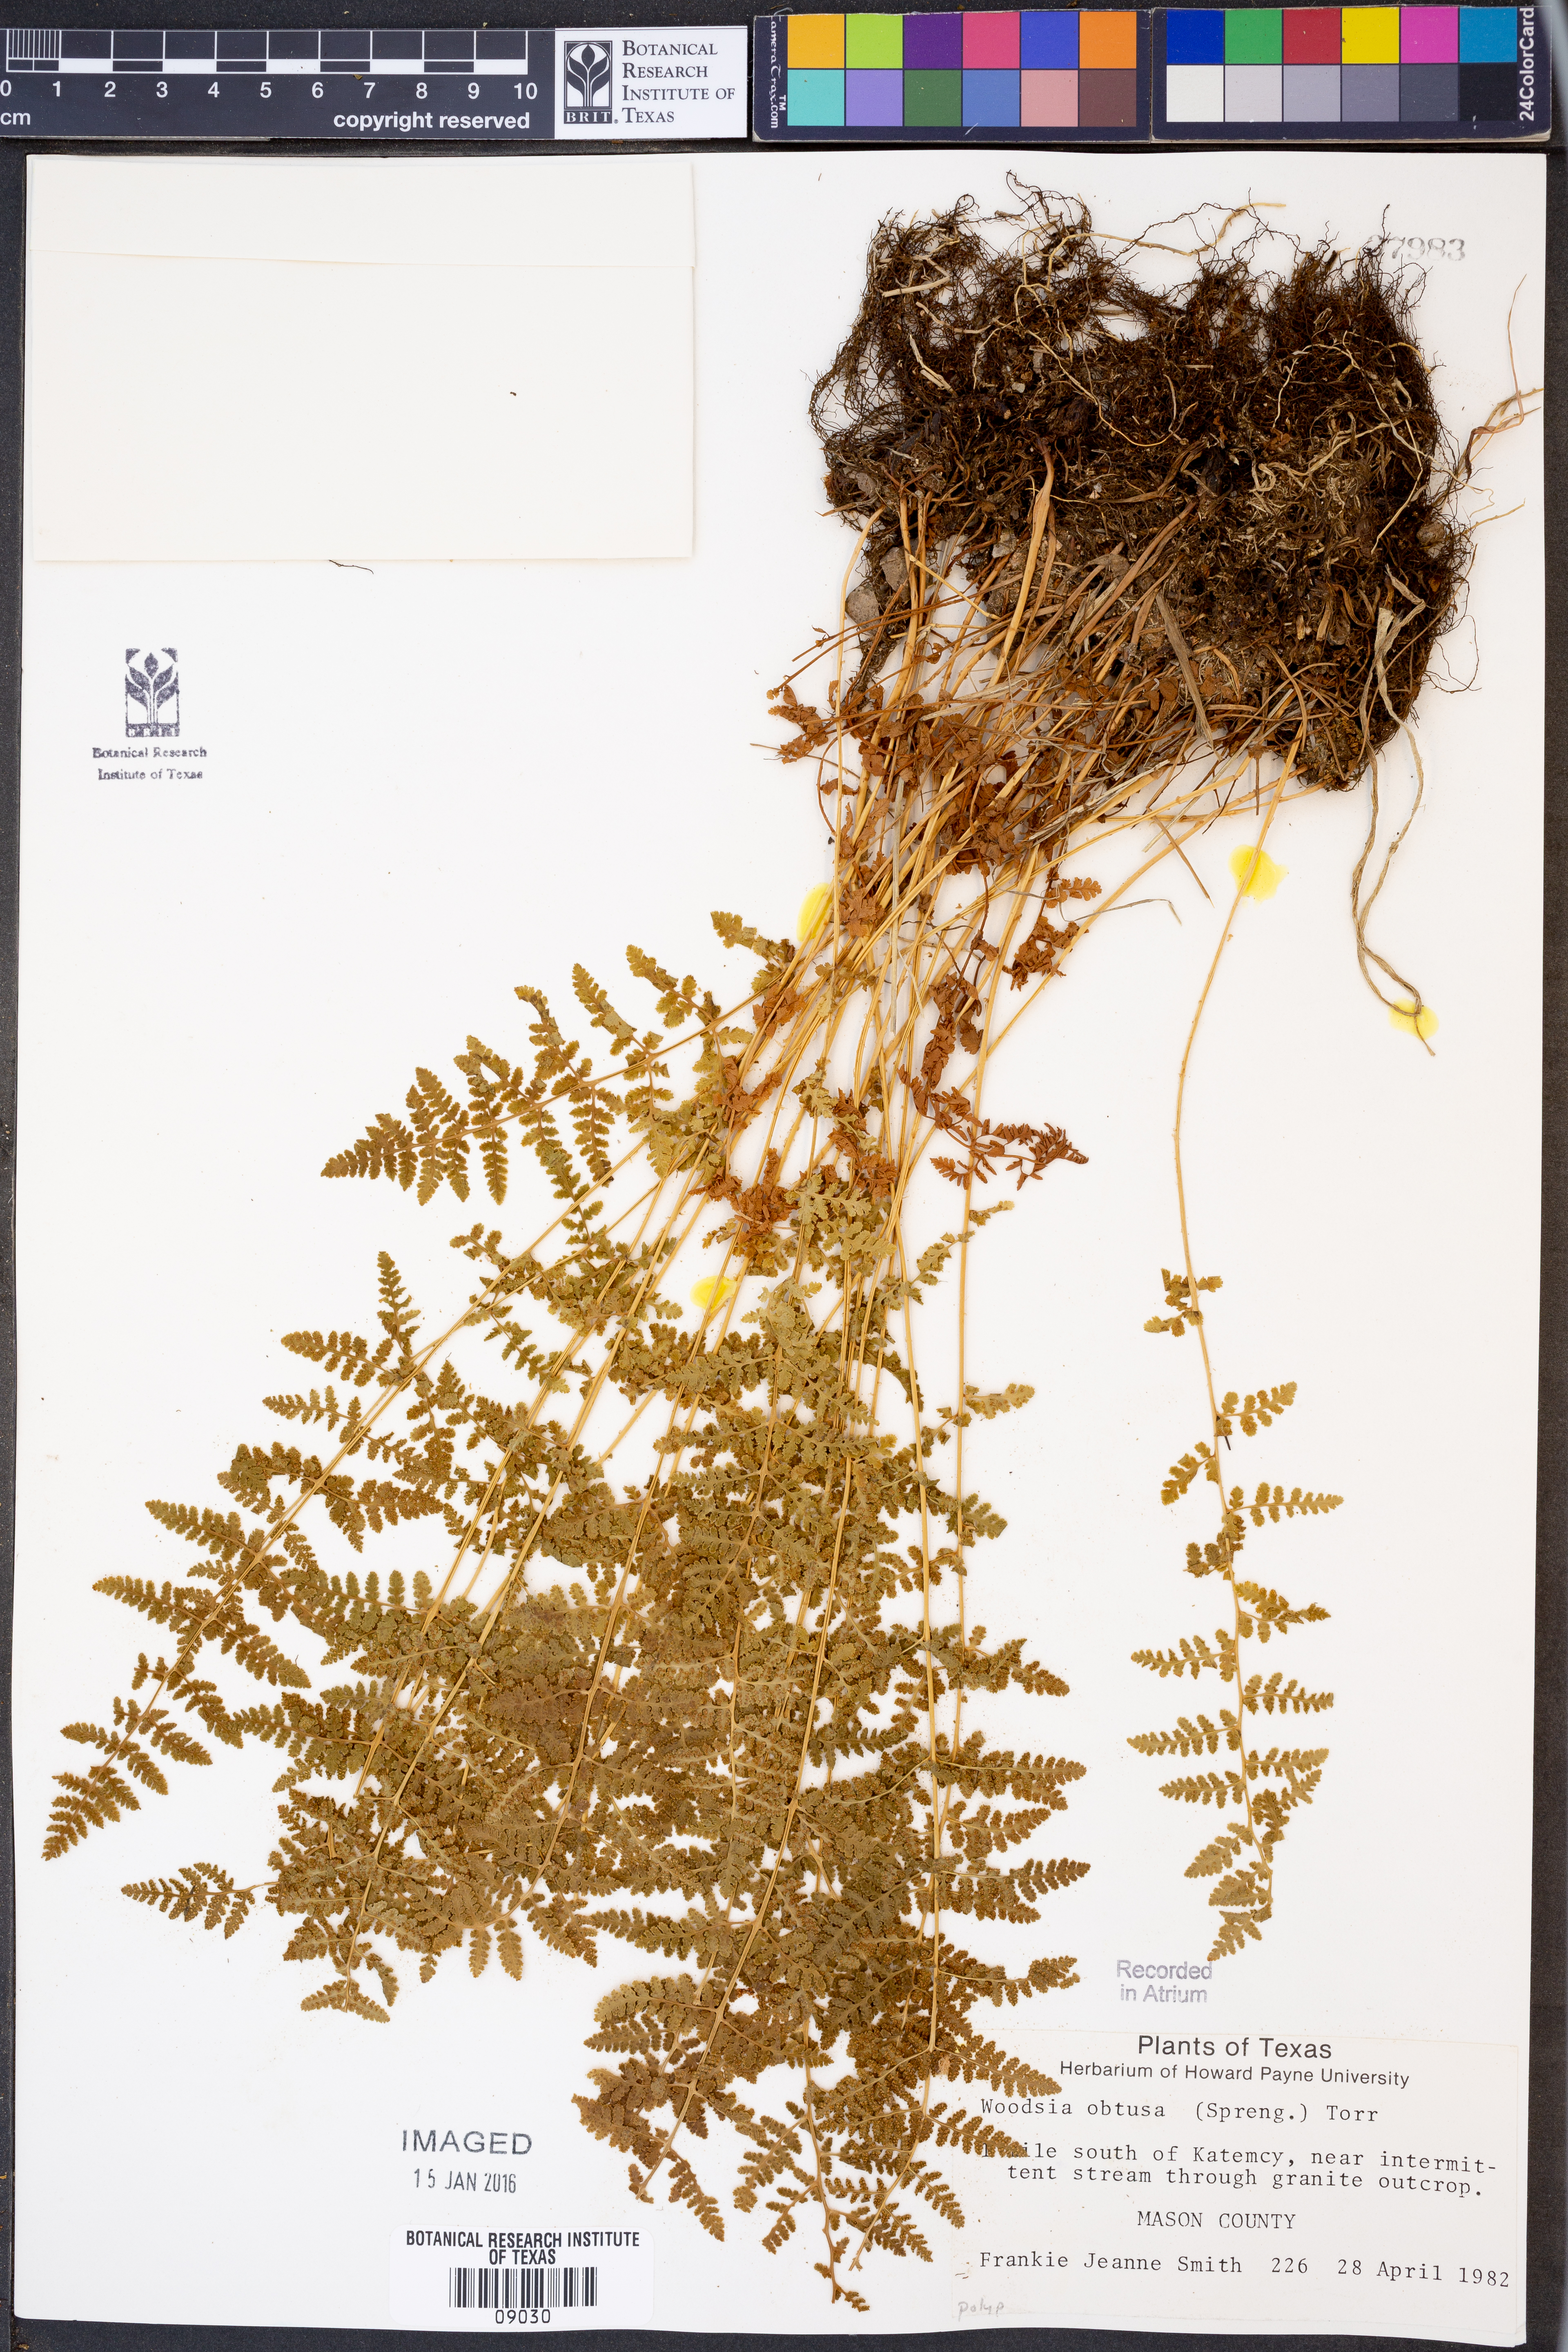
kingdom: Plantae
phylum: Tracheophyta
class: Polypodiopsida
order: Polypodiales
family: Woodsiaceae
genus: Physematium
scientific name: Physematium obtusum
